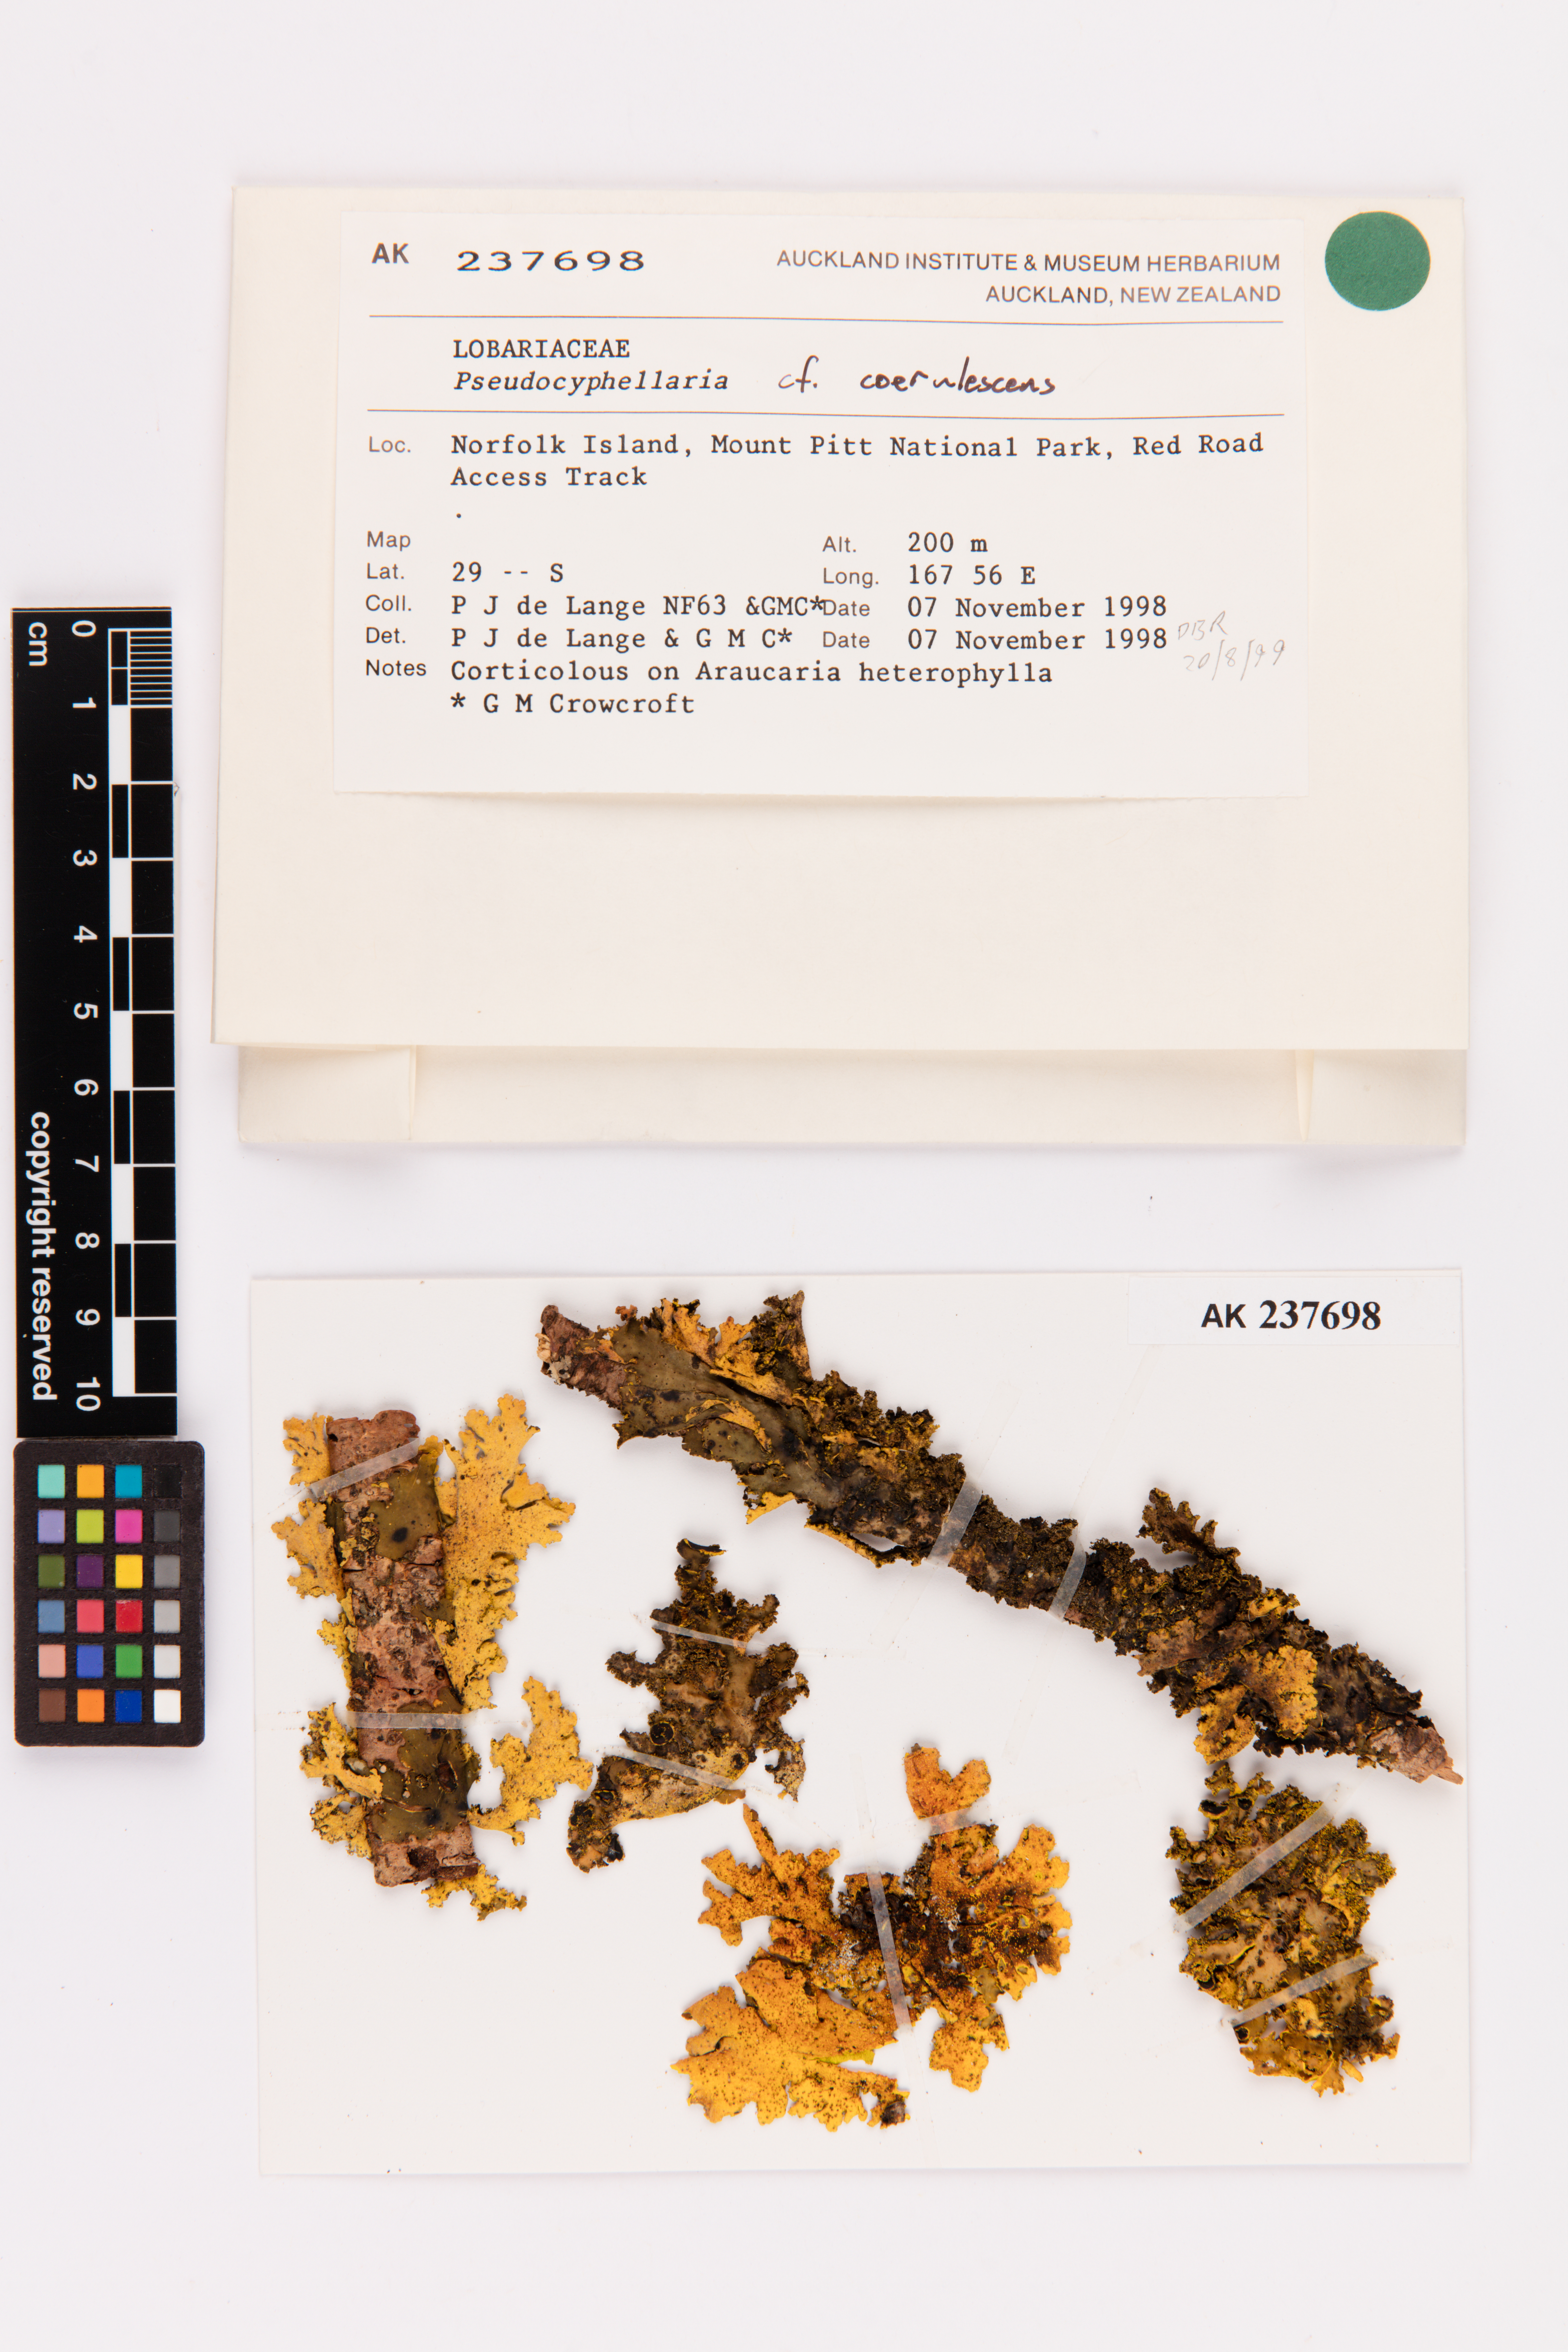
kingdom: Fungi
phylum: Ascomycota
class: Lecanoromycetes
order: Peltigerales
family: Lobariaceae
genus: Pseudocyphellaria
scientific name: Pseudocyphellaria
